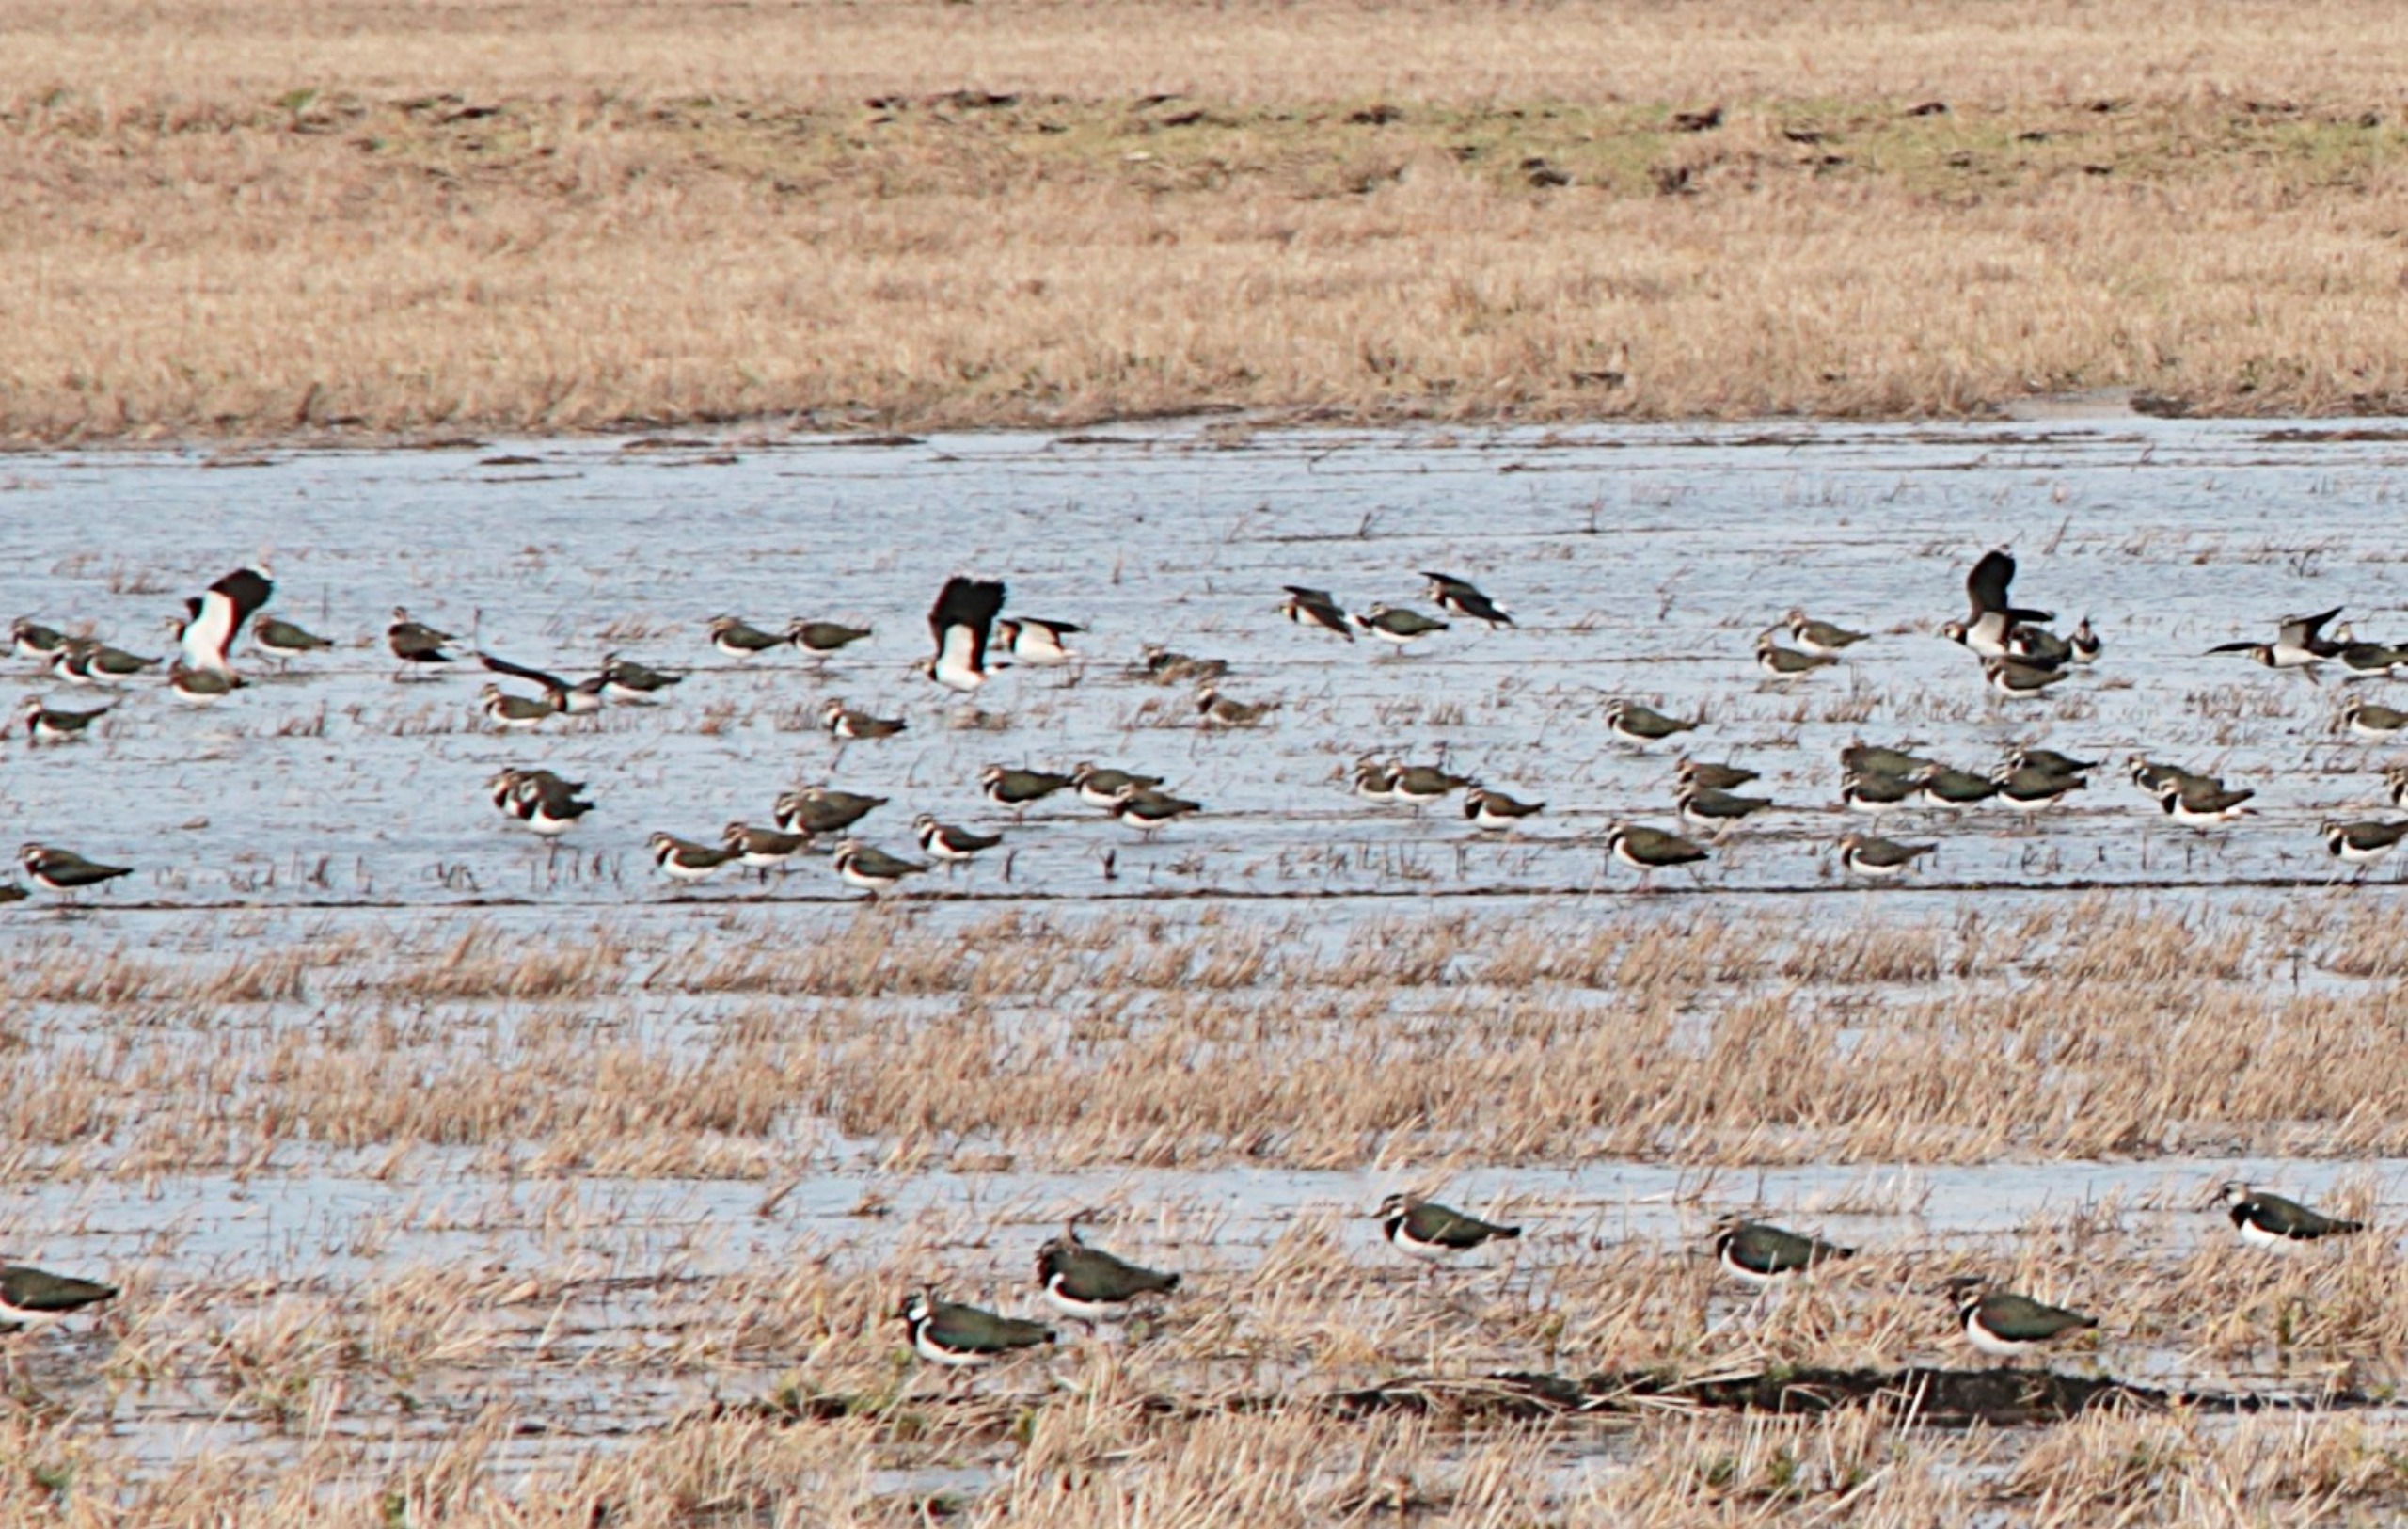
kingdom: Animalia
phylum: Chordata
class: Aves
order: Charadriiformes
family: Charadriidae
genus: Vanellus
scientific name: Vanellus vanellus
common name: Vibe
